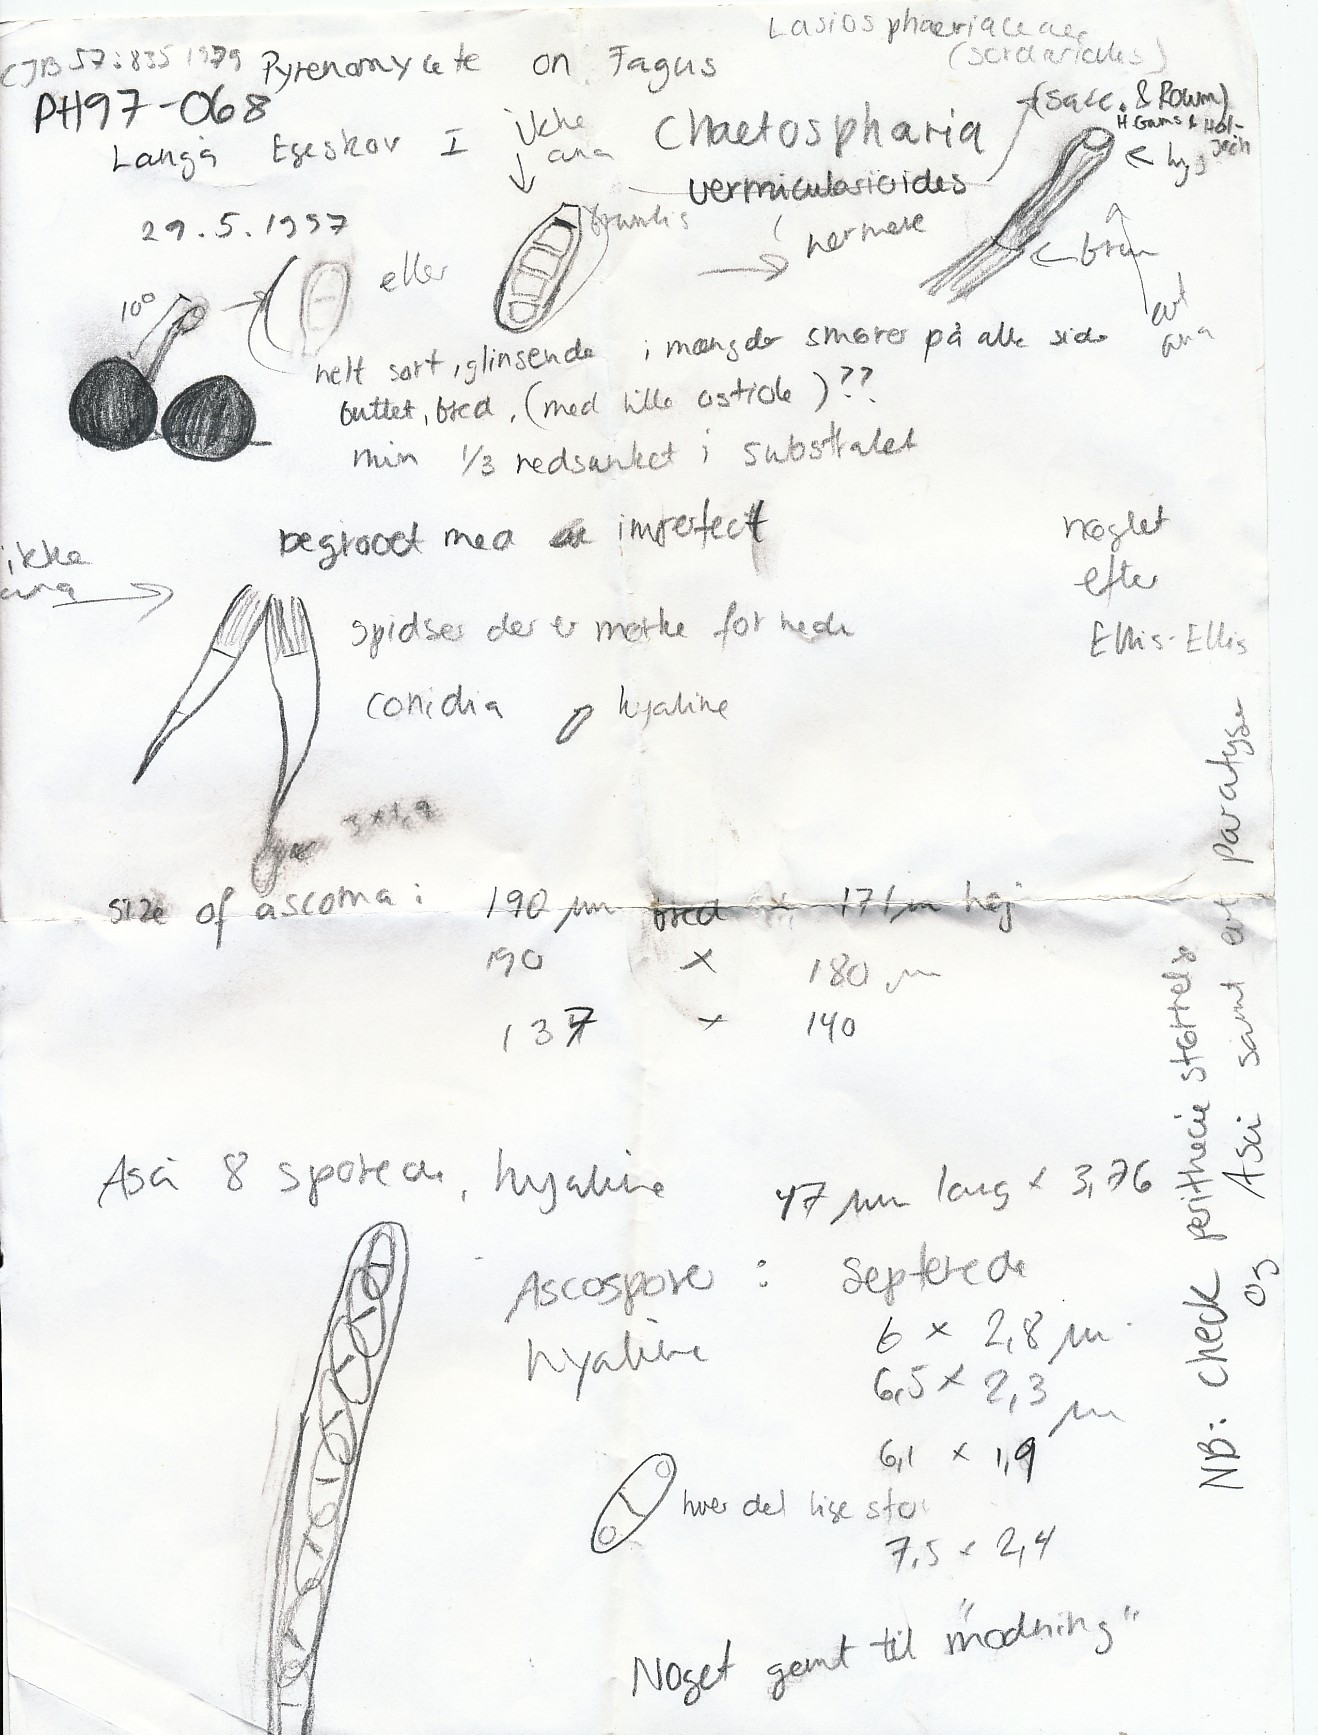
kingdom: Fungi
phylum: Ascomycota
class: Sordariomycetes
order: Chaetosphaeriales
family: Chaetosphaeriaceae
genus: Chaetosphaeria
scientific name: Chaetosphaeria vermicularioides
